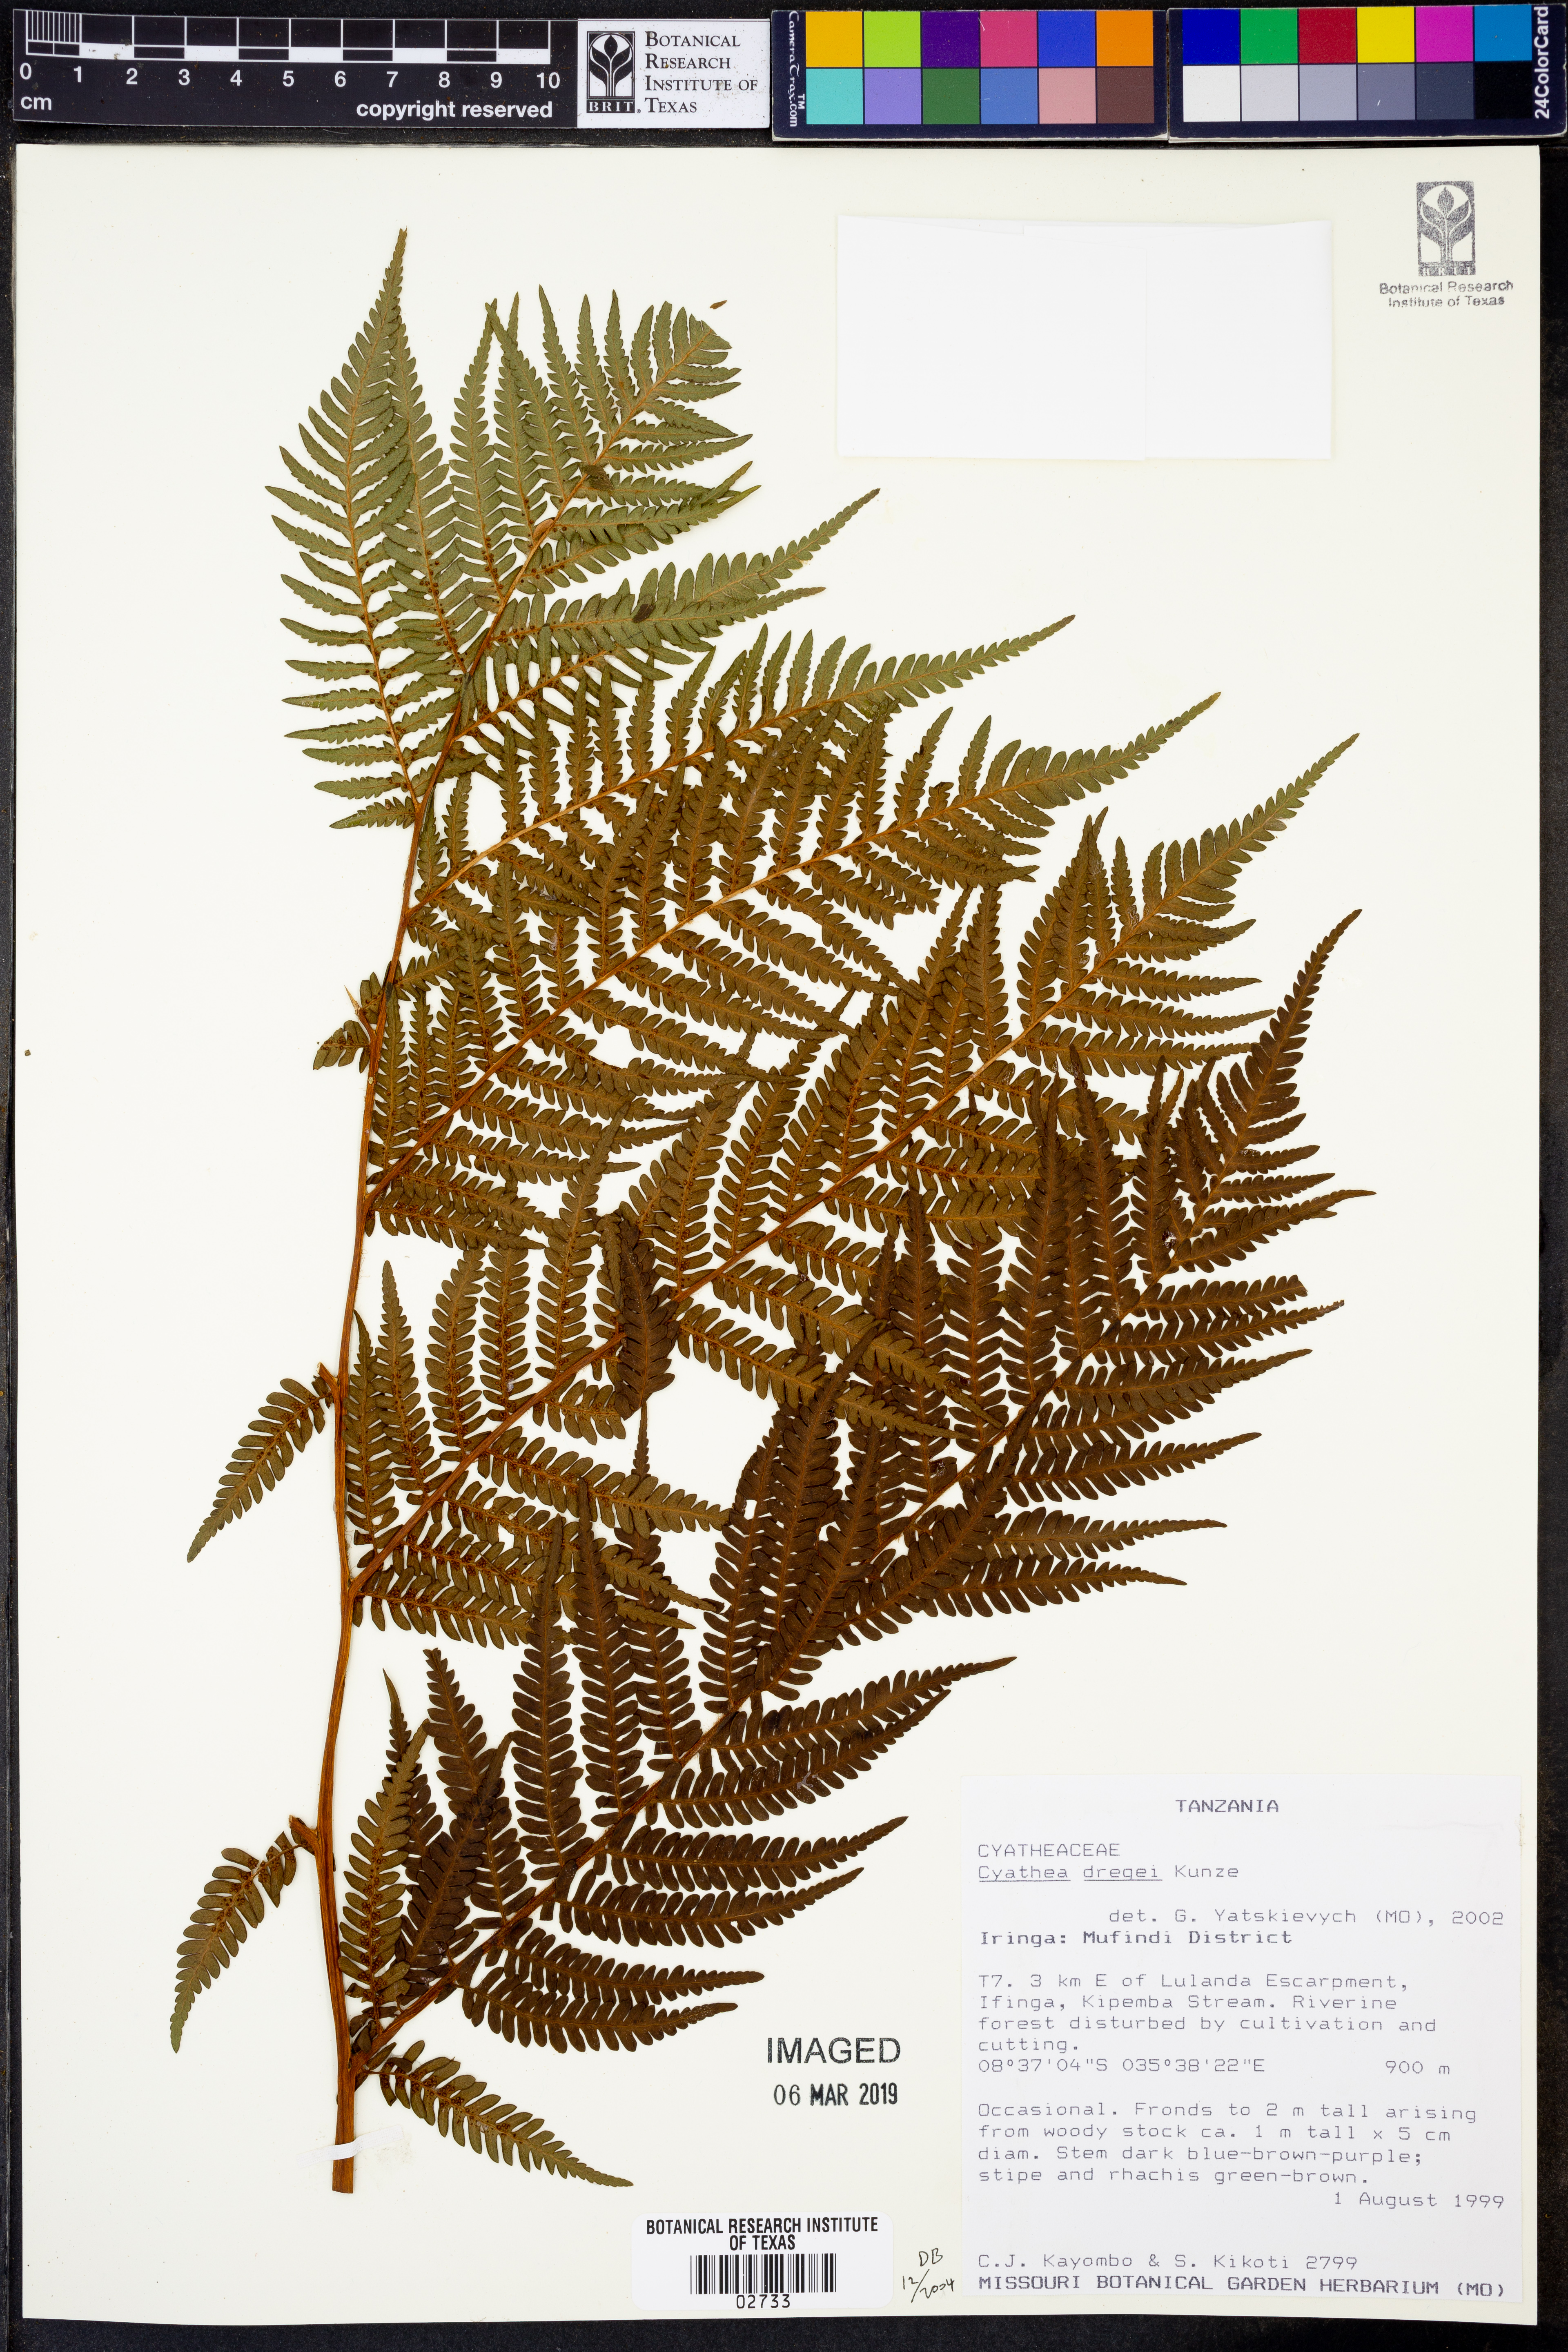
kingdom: Plantae
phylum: Tracheophyta
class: Polypodiopsida
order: Cyatheales
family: Cyatheaceae
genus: Alsophila
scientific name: Alsophila dregei
